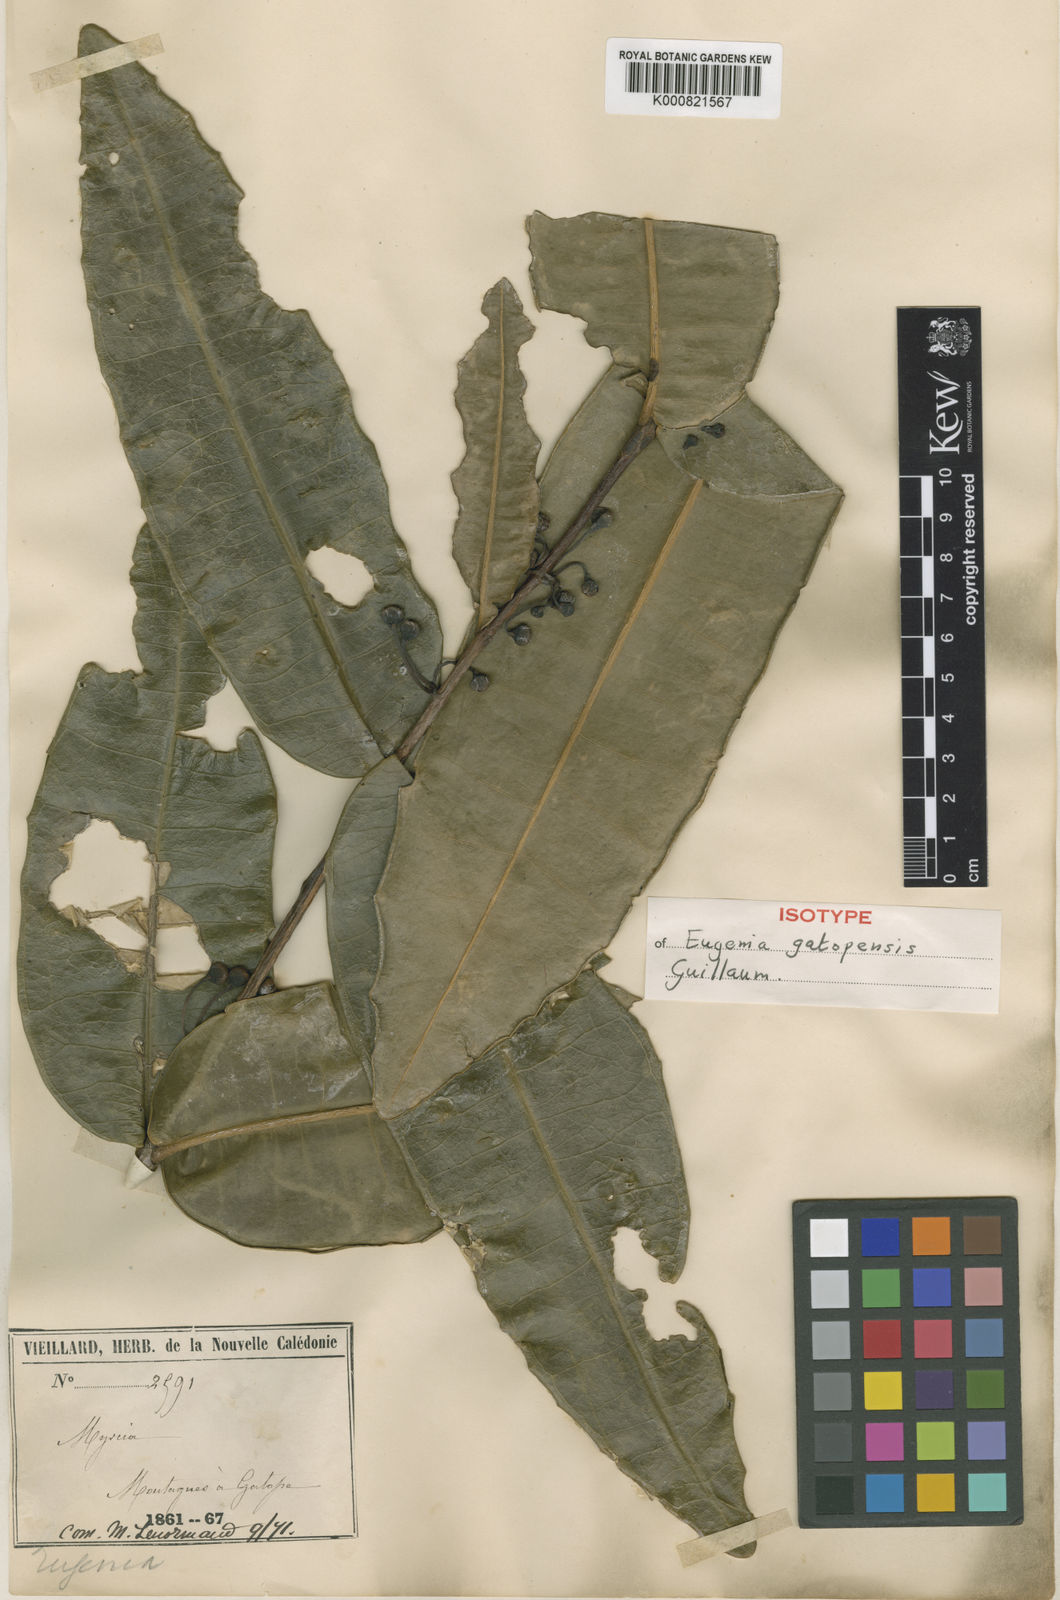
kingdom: Plantae
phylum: Tracheophyta
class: Magnoliopsida
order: Myrtales
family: Myrtaceae
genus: Eugenia
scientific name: Eugenia gatopensis
